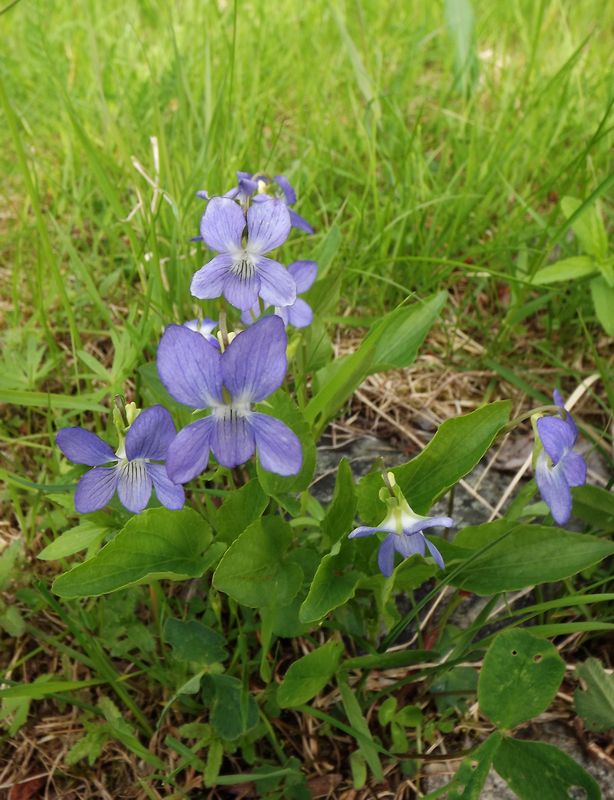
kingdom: Plantae
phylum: Tracheophyta
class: Magnoliopsida
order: Malpighiales
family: Violaceae
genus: Viola
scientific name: Viola canina
